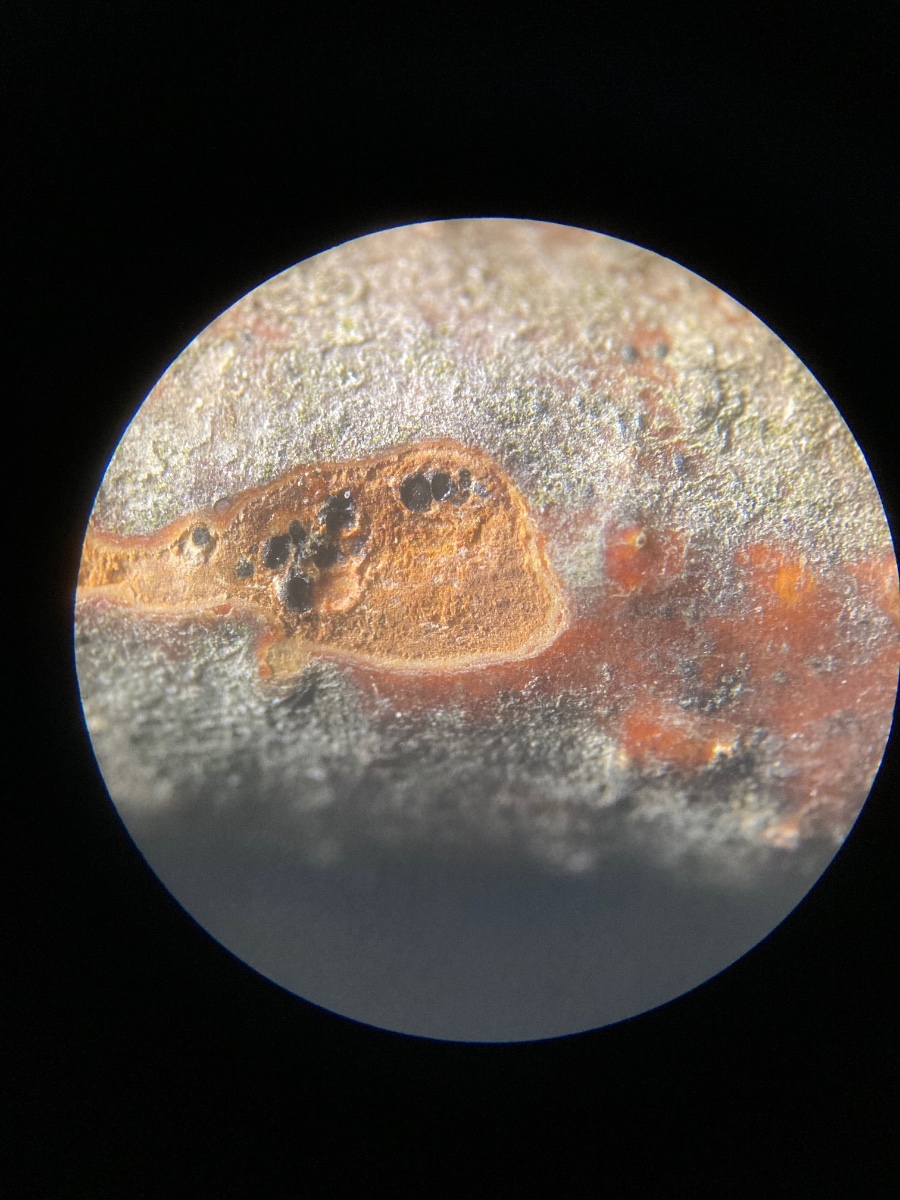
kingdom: Fungi
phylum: Ascomycota
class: Sordariomycetes
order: Diaporthales
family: Gnomoniaceae
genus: Cryptosporella
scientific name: Cryptosporella suffusa
